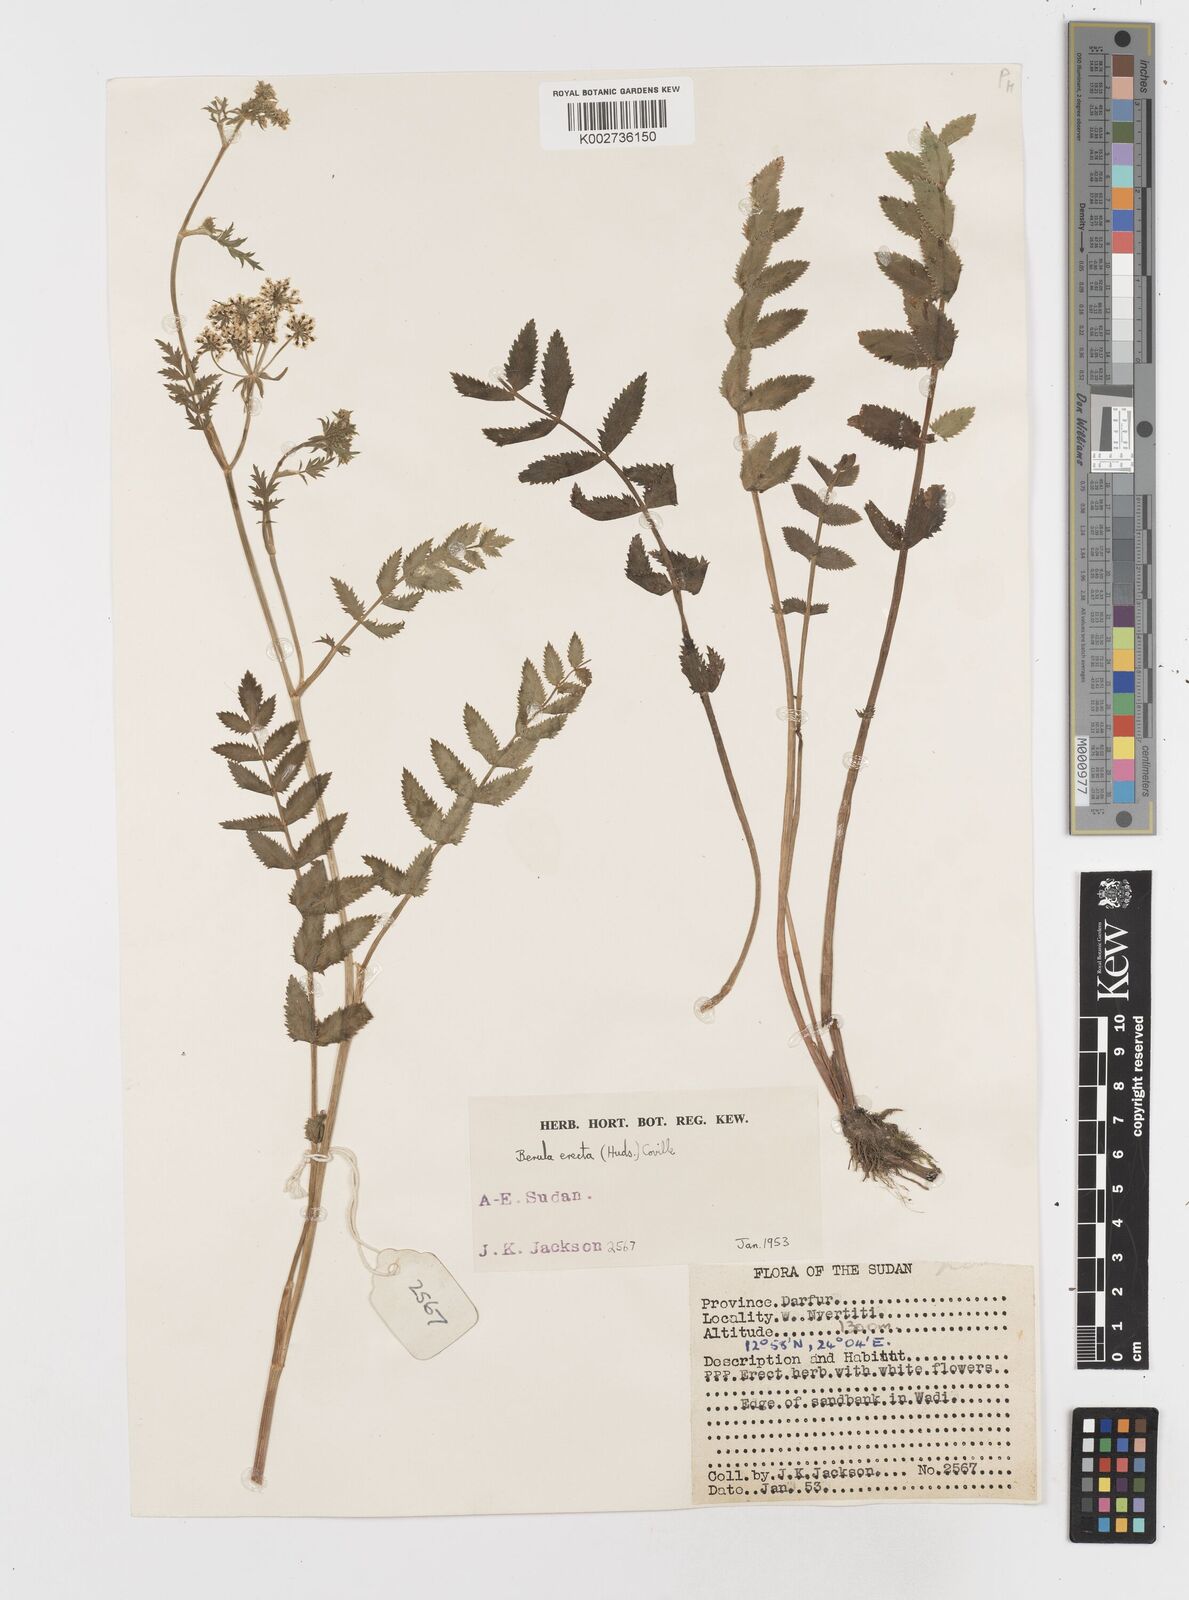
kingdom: Plantae
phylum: Tracheophyta
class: Magnoliopsida
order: Apiales
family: Apiaceae
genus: Berula
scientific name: Berula erecta
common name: Lesser water-parsnip
